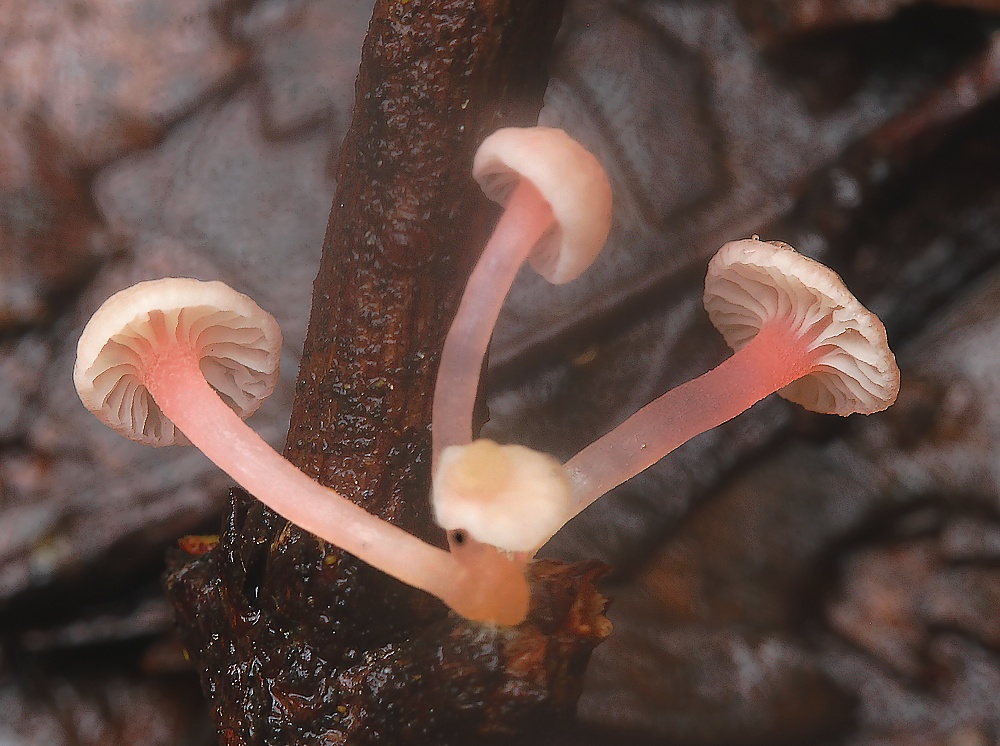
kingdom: Fungi
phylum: Basidiomycota
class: Agaricomycetes
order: Agaricales
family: Mycenaceae
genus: Mycena
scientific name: Mycena coccinea
